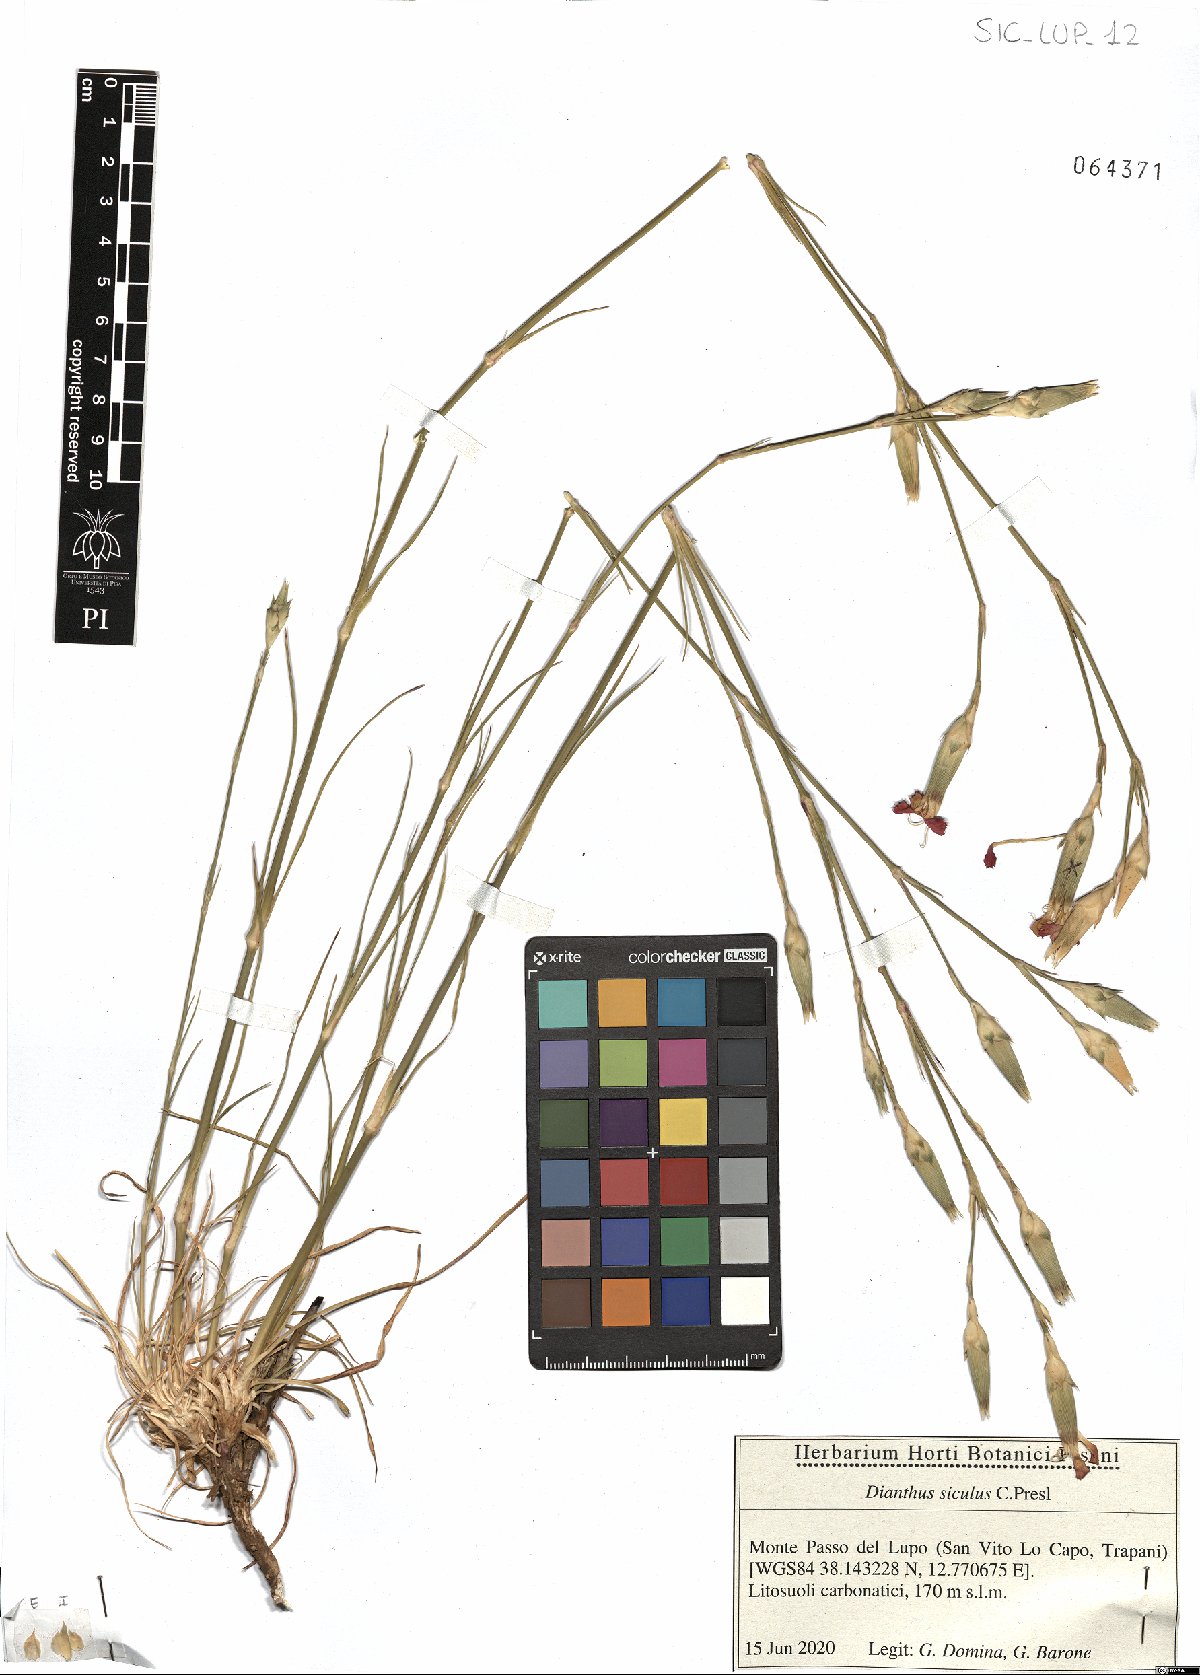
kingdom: Plantae
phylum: Tracheophyta
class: Magnoliopsida
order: Caryophyllales
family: Caryophyllaceae
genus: Dianthus
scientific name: Dianthus siculus
